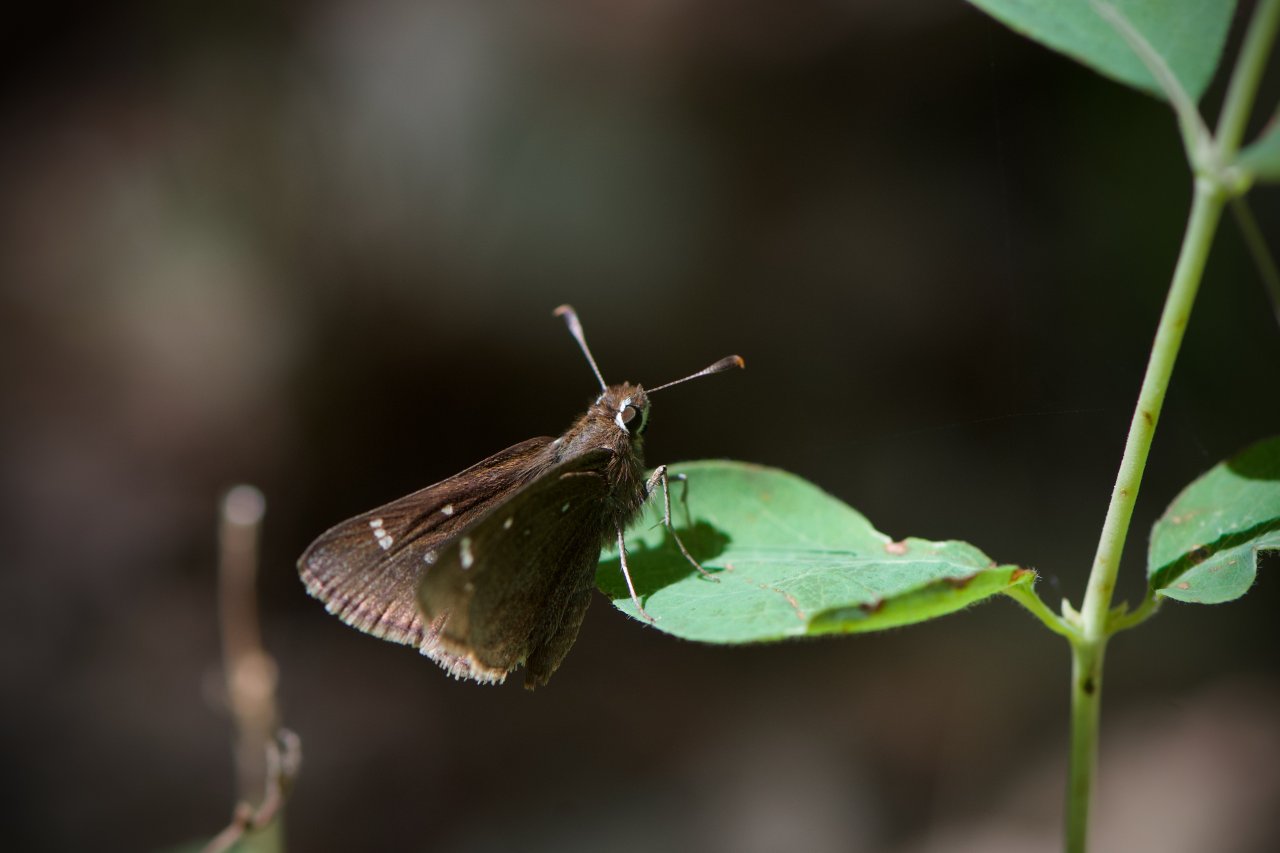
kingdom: Animalia
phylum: Arthropoda
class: Insecta
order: Lepidoptera
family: Hesperiidae
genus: Atrytonopsis
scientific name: Atrytonopsis hianna
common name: Dusted Skipper
